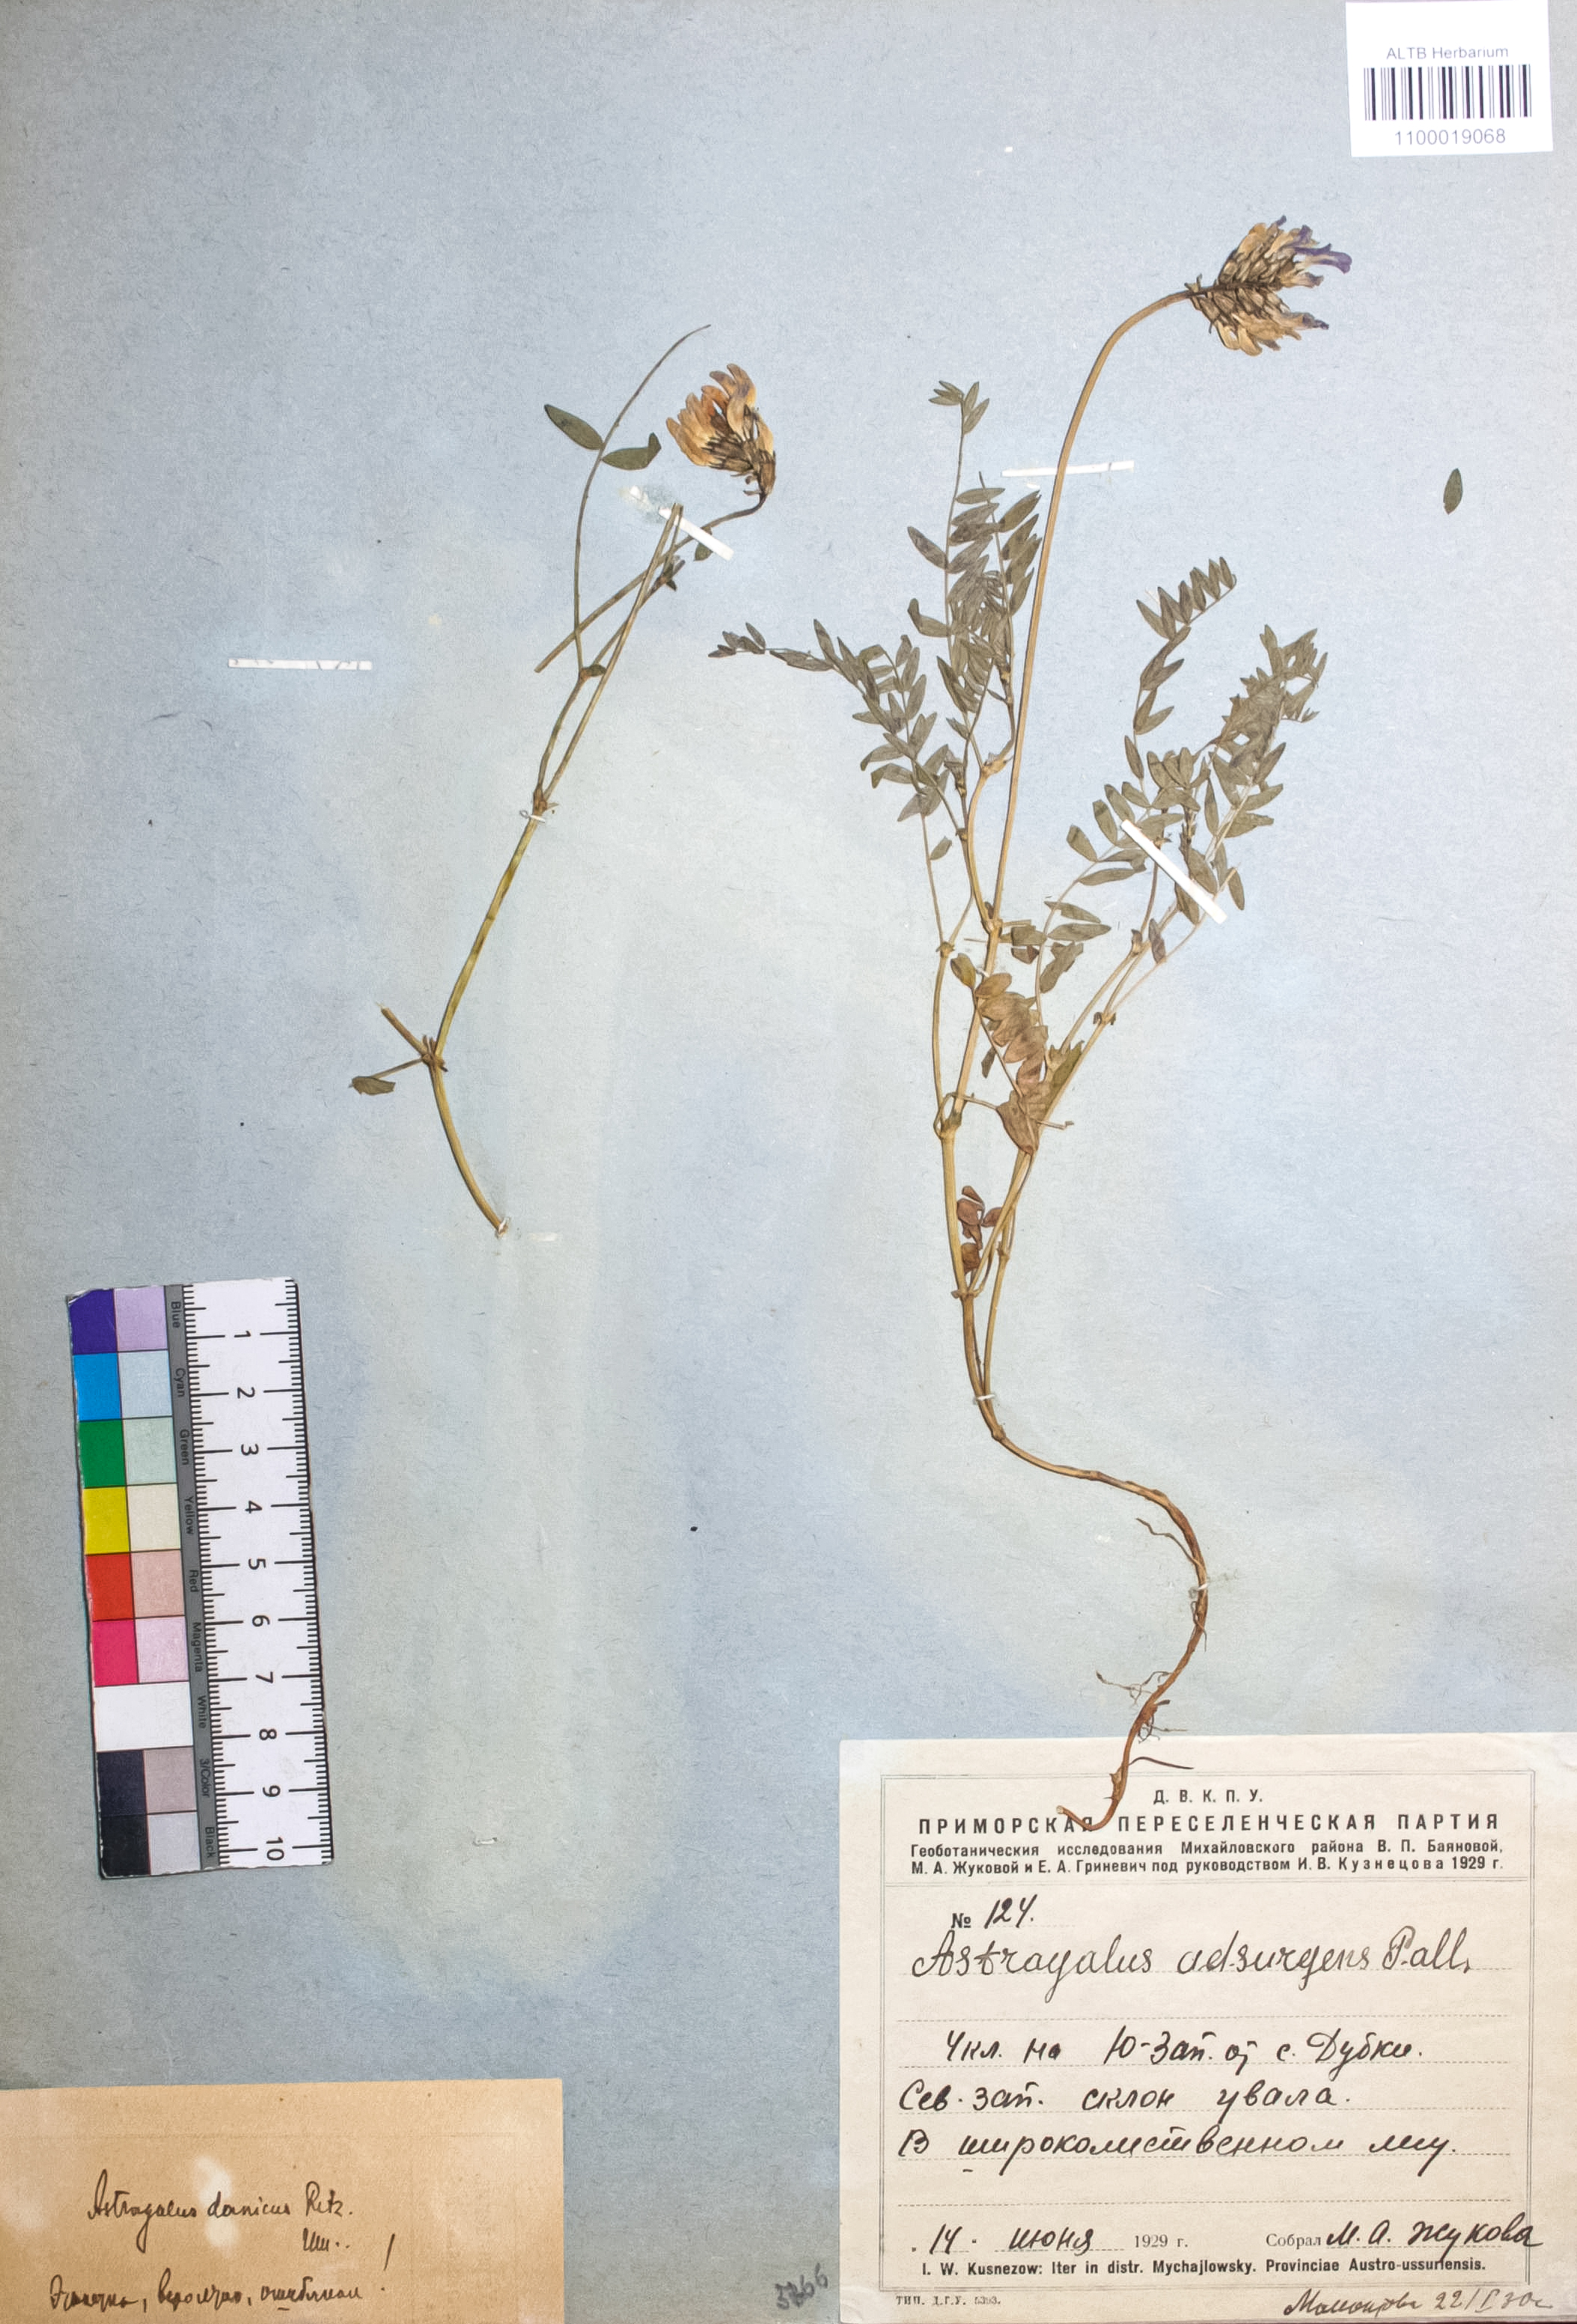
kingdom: Plantae
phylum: Tracheophyta
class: Magnoliopsida
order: Fabales
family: Fabaceae
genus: Astragalus
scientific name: Astragalus danicus
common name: Purple milk-vetch
